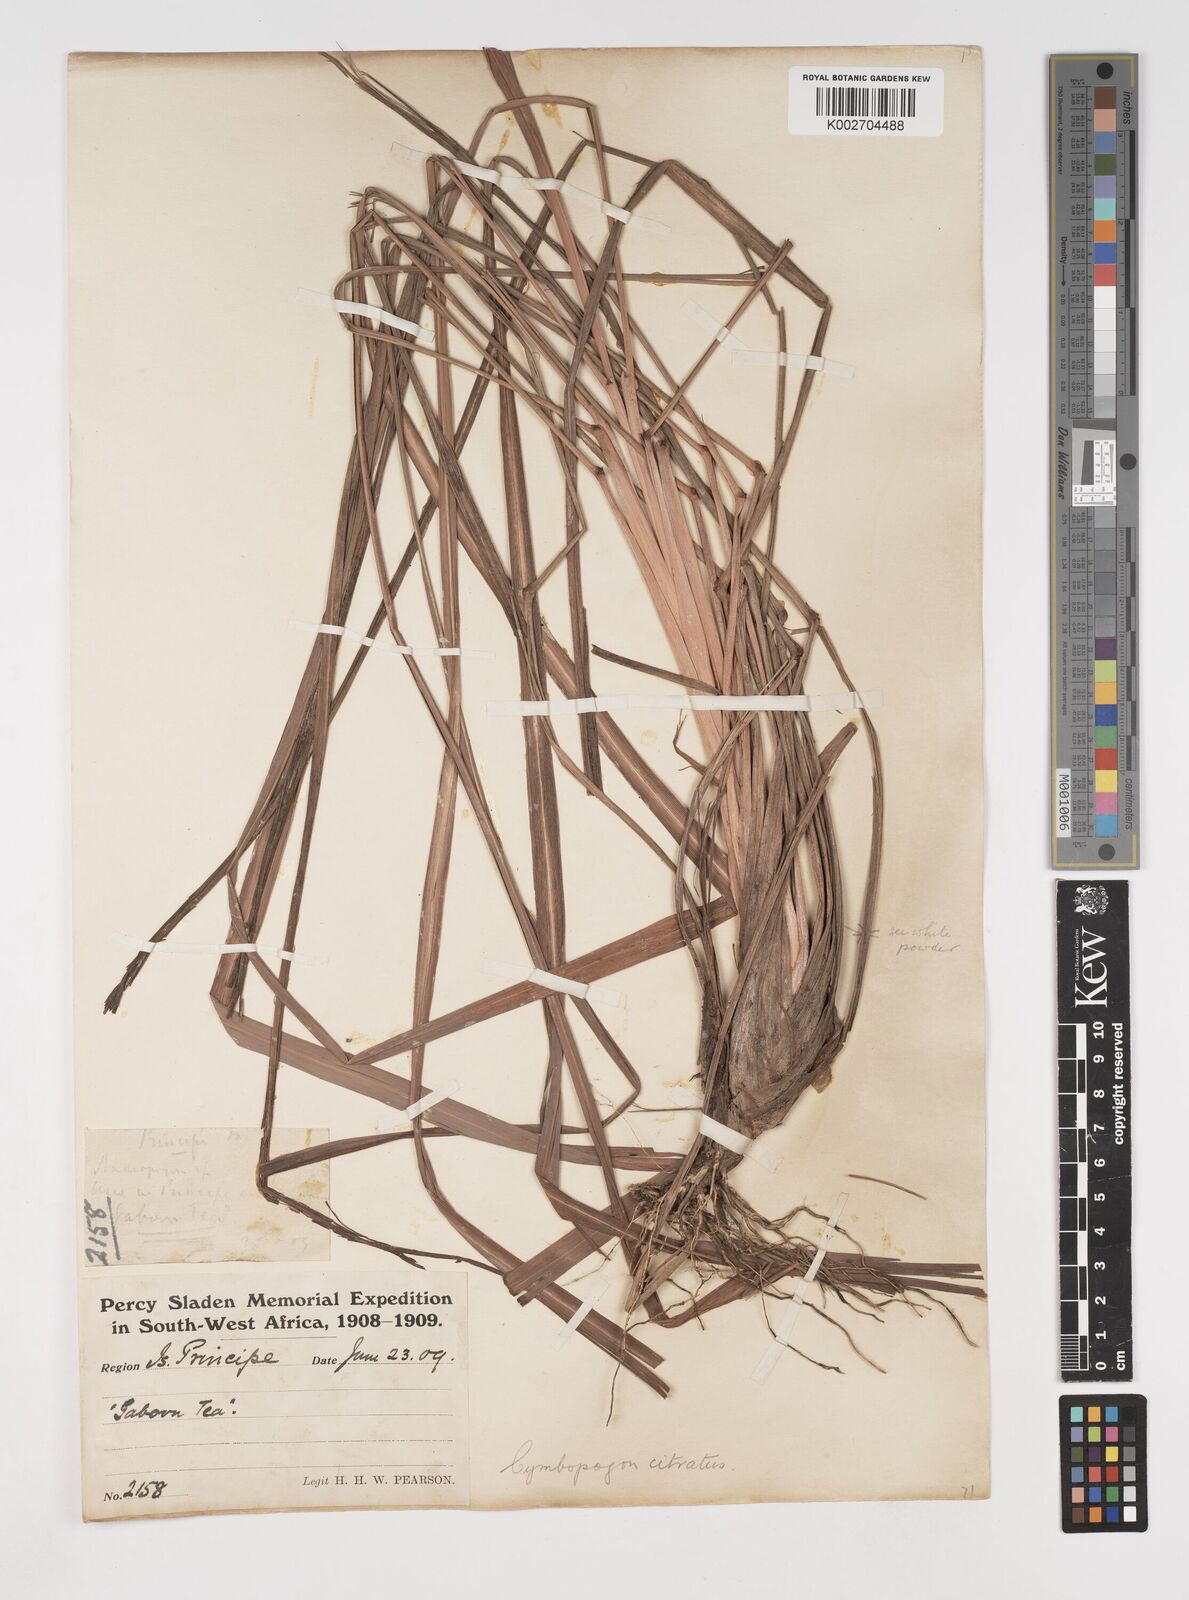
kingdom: Plantae
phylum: Tracheophyta
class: Liliopsida
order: Poales
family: Poaceae
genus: Cymbopogon
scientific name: Cymbopogon citratus
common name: Lemon grass
